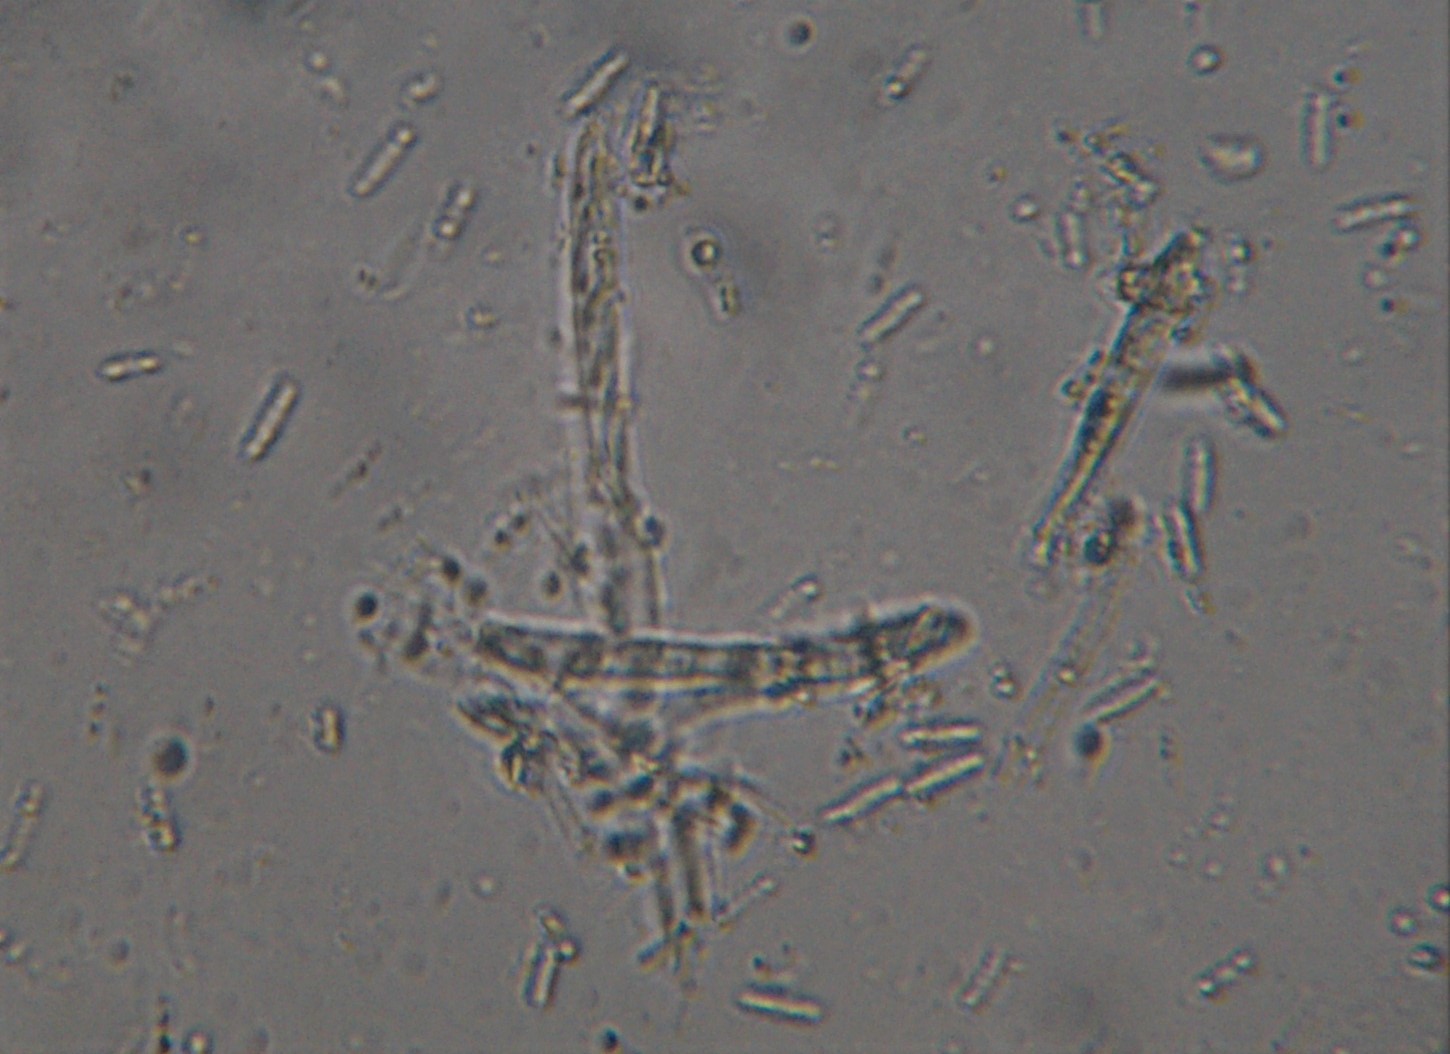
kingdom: Fungi
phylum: Ascomycota
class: Leotiomycetes
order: Helotiales
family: Helotiaceae
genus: Cyathicula
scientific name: Cyathicula cyathoidea
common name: pokal-stilkskive
